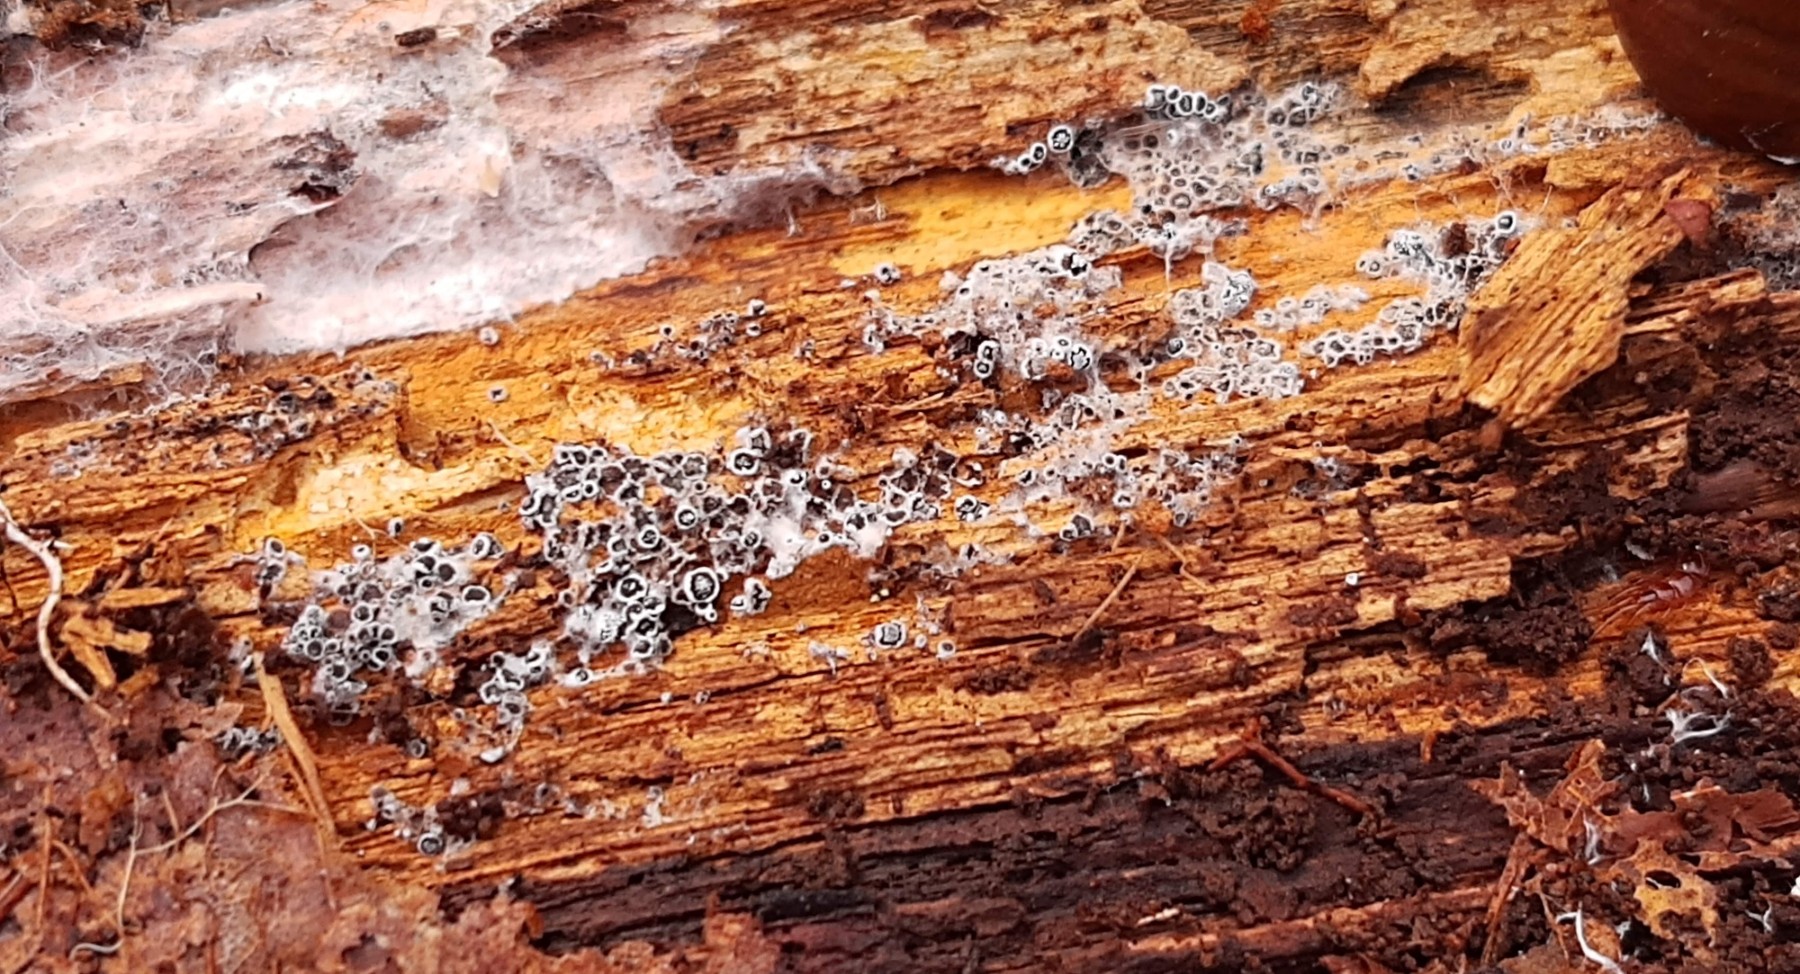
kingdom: Fungi
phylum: Ascomycota
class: Leotiomycetes
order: Helotiales
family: Arachnopezizaceae
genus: Eriopezia
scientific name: Eriopezia caesia
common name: ege-spindskive
